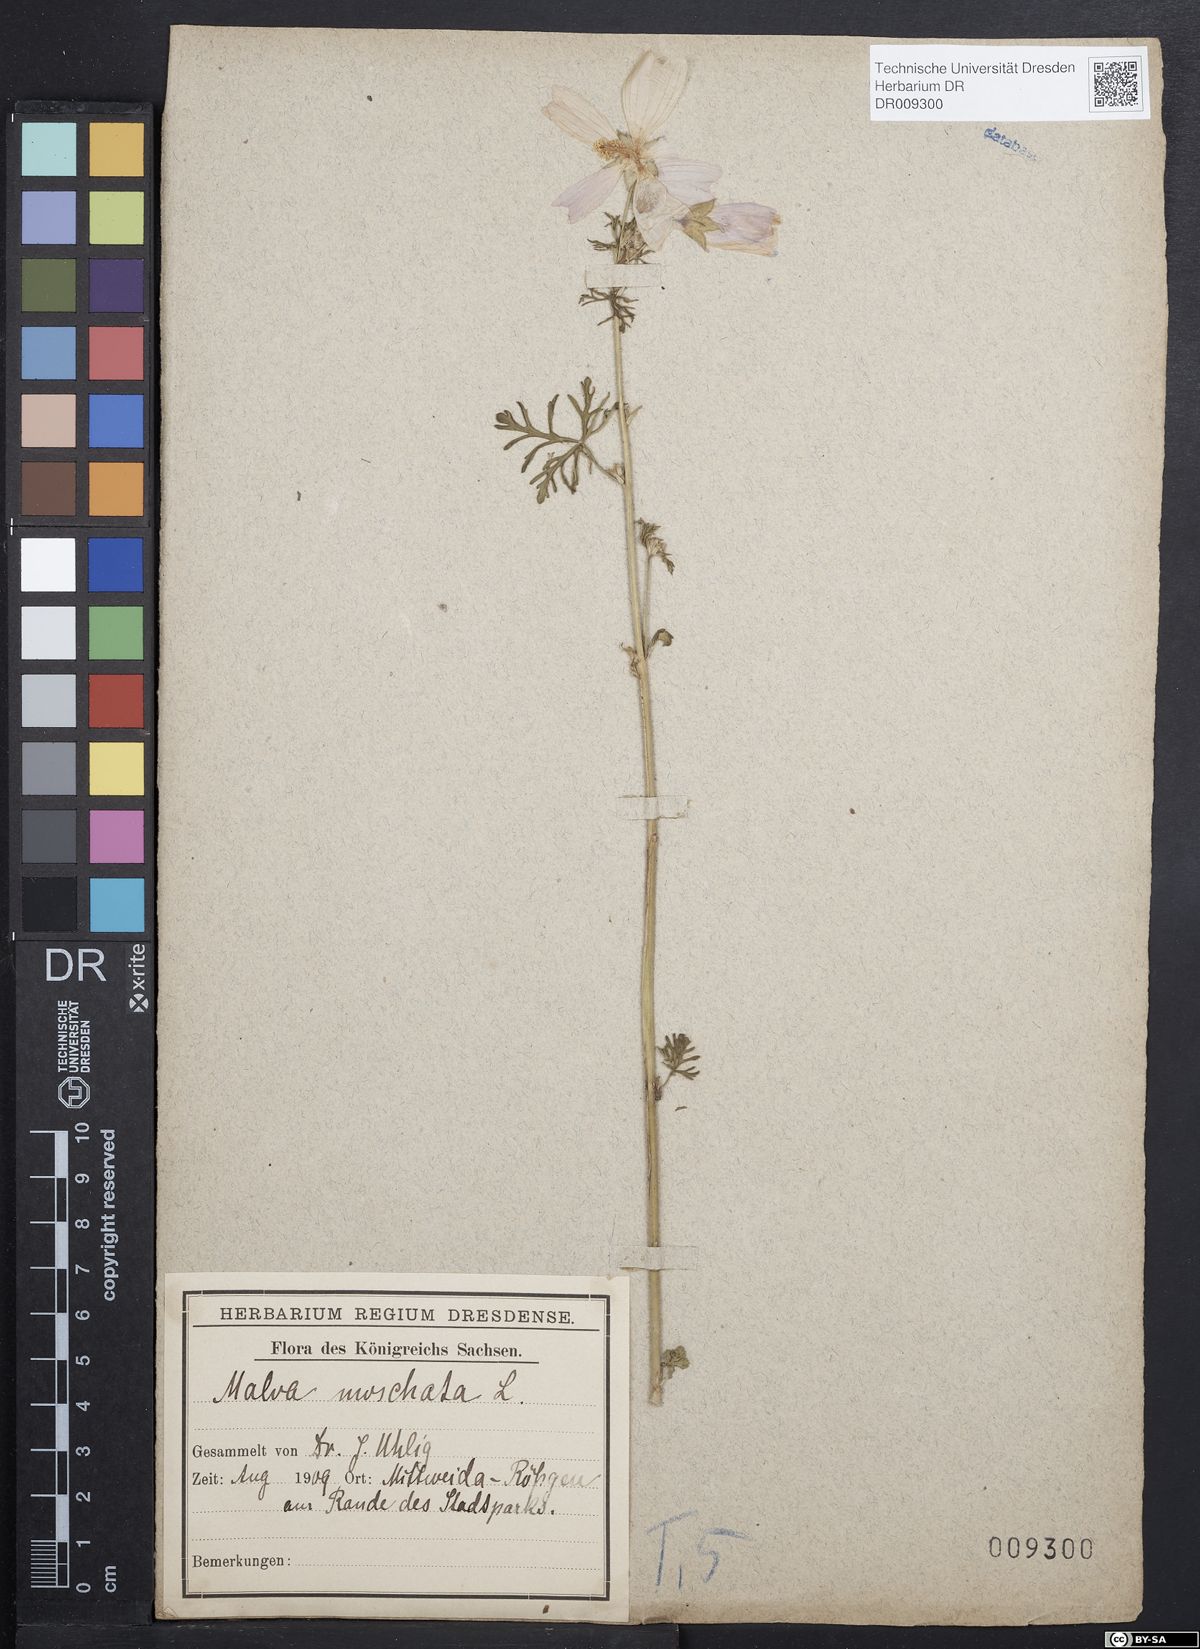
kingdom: Plantae
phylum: Tracheophyta
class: Magnoliopsida
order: Malvales
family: Malvaceae
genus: Malva
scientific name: Malva moschata
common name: Musk mallow
